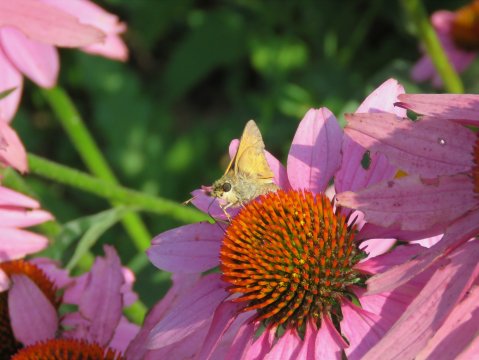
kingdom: Animalia
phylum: Arthropoda
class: Insecta
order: Lepidoptera
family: Hesperiidae
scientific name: Hesperiidae
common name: Skippers
